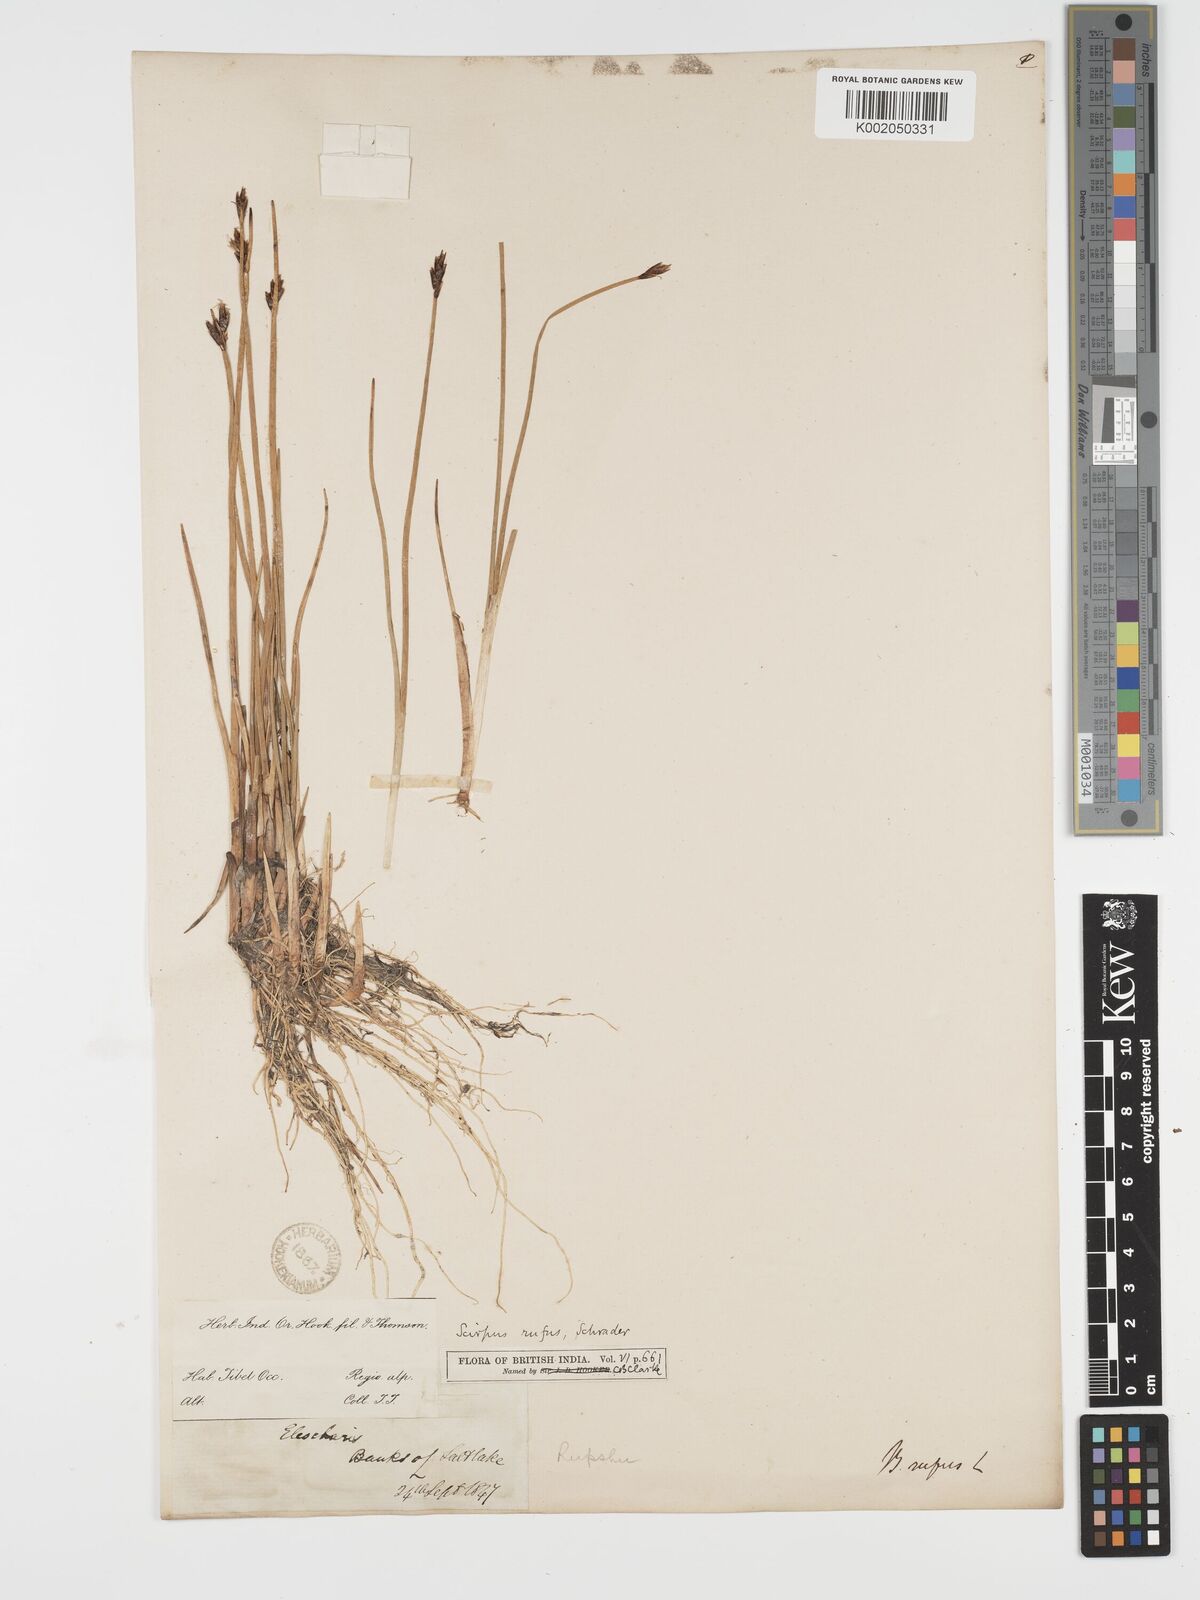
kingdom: Plantae
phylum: Tracheophyta
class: Liliopsida
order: Poales
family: Cyperaceae
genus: Blysmus
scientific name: Blysmus rufus
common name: Saltmarsh flat-sedge
